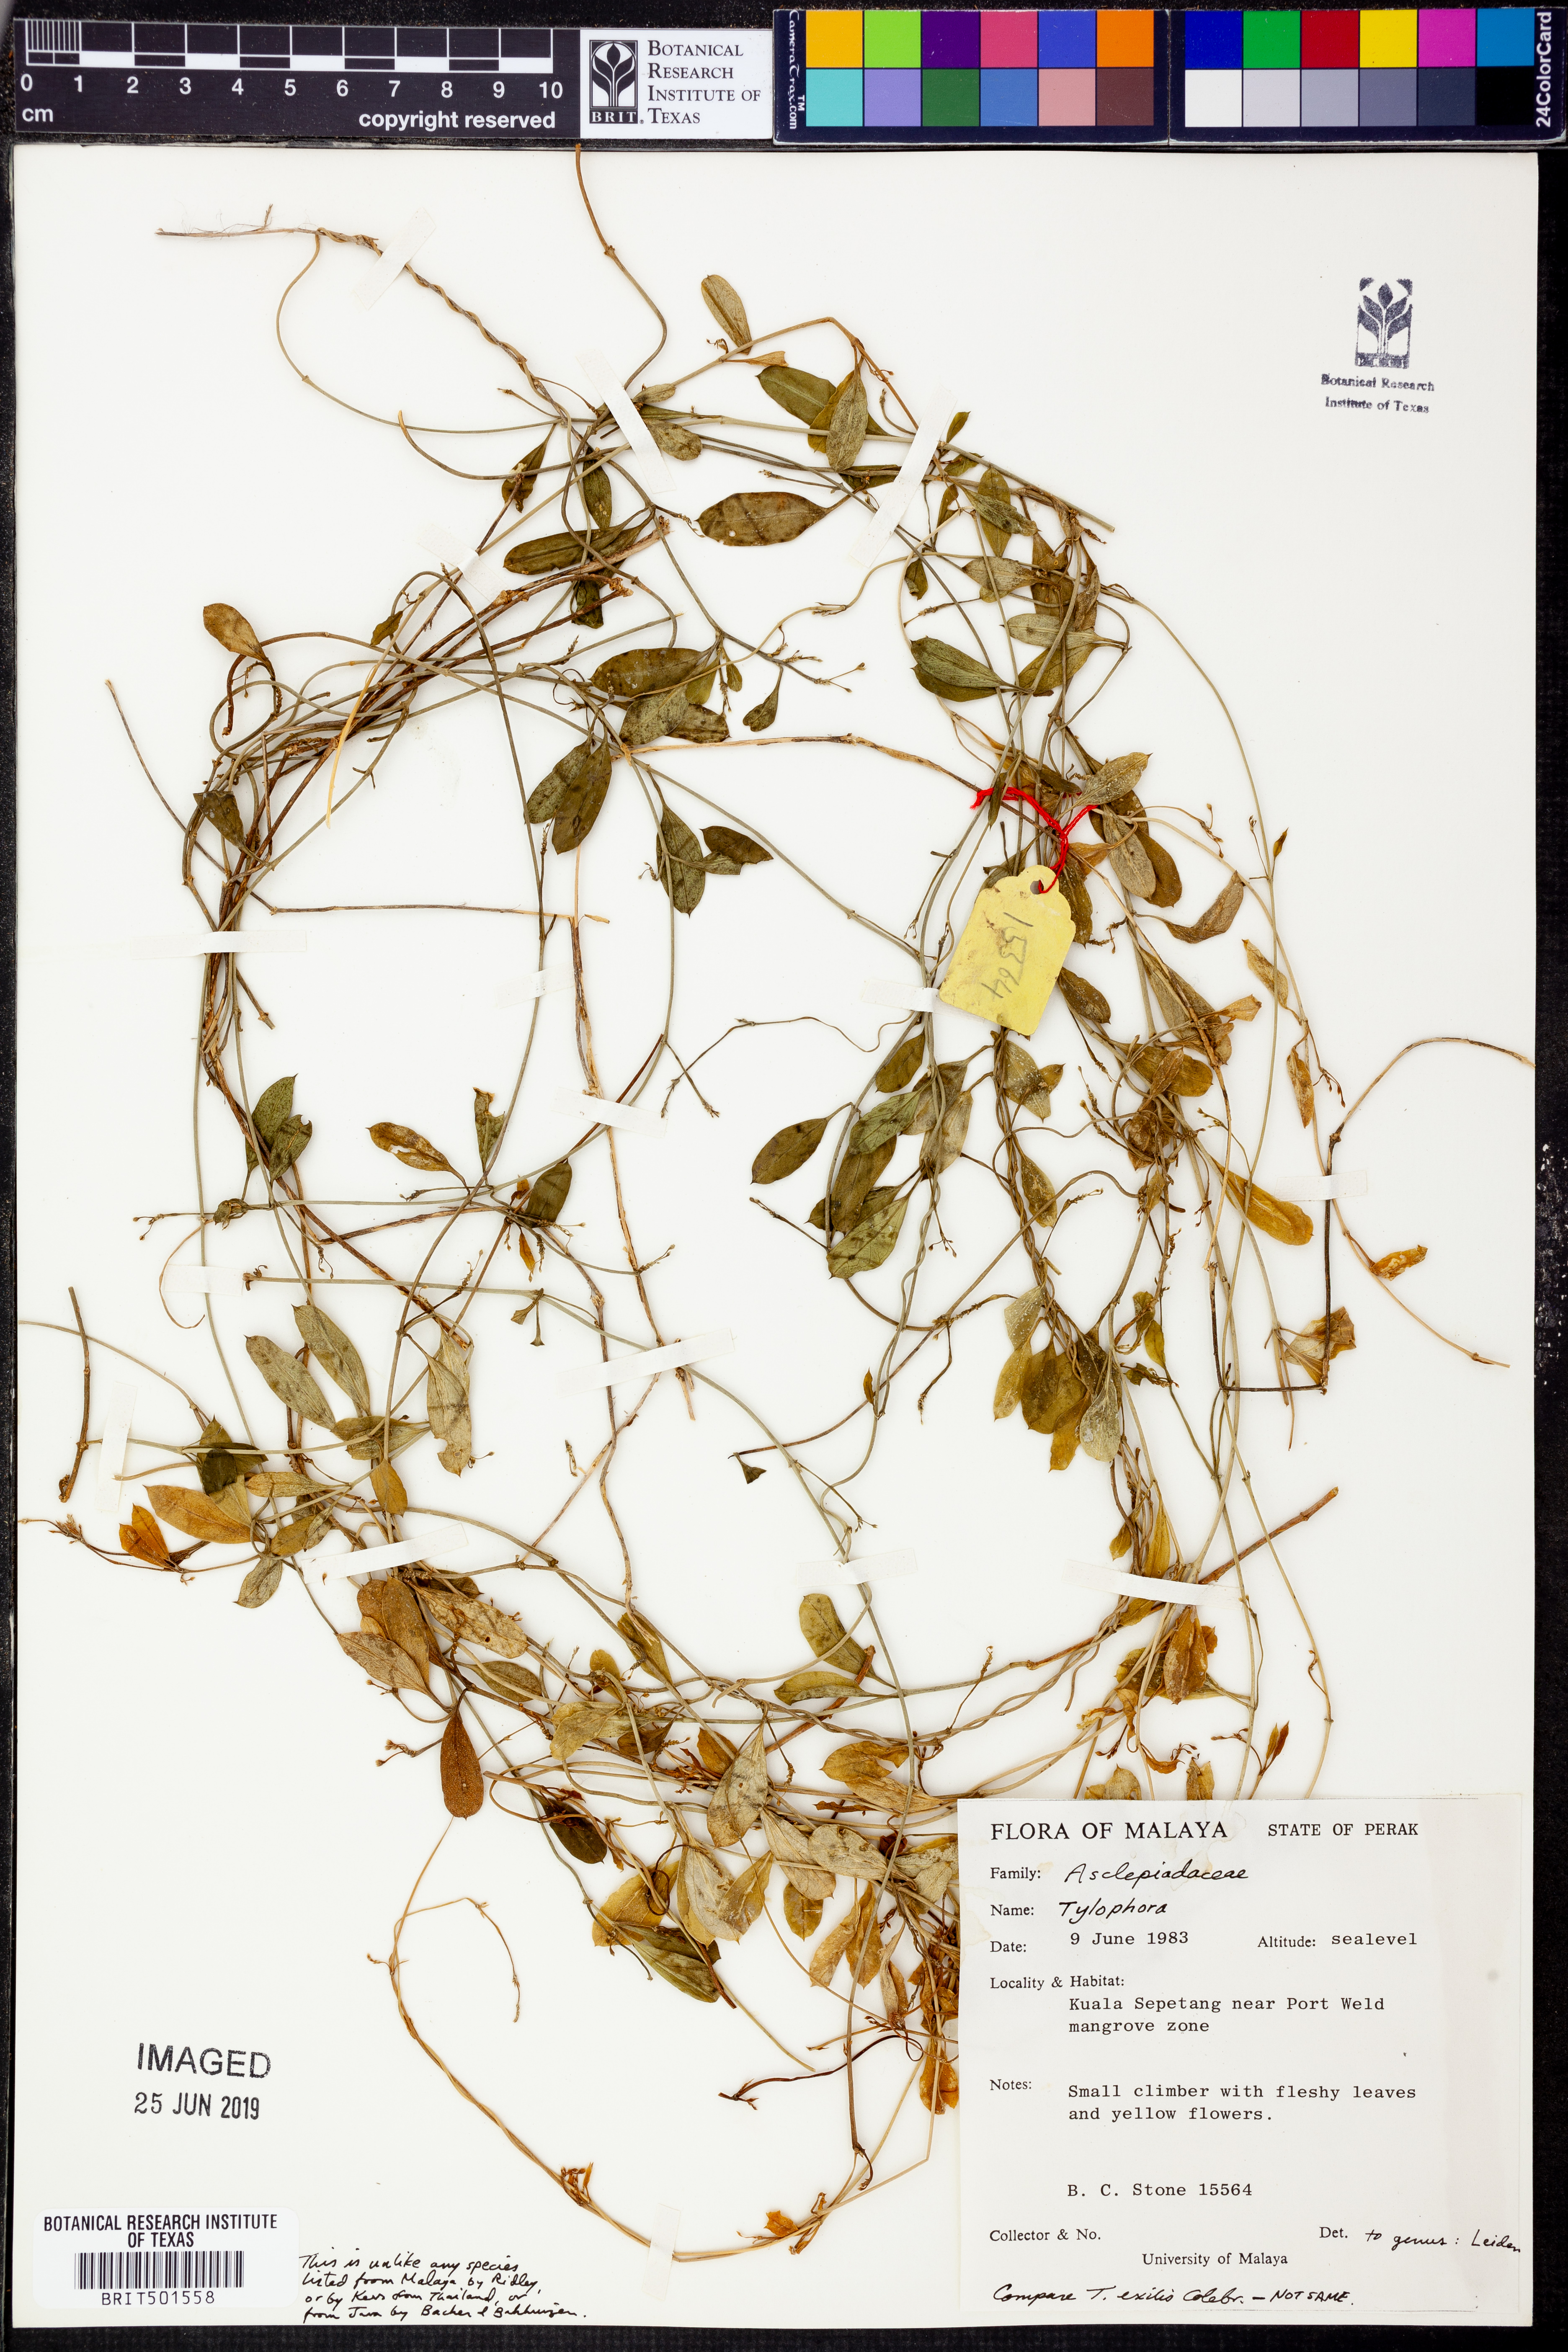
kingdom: Plantae
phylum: Tracheophyta
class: Magnoliopsida
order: Gentianales
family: Apocynaceae
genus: Vincetoxicum
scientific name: Vincetoxicum
